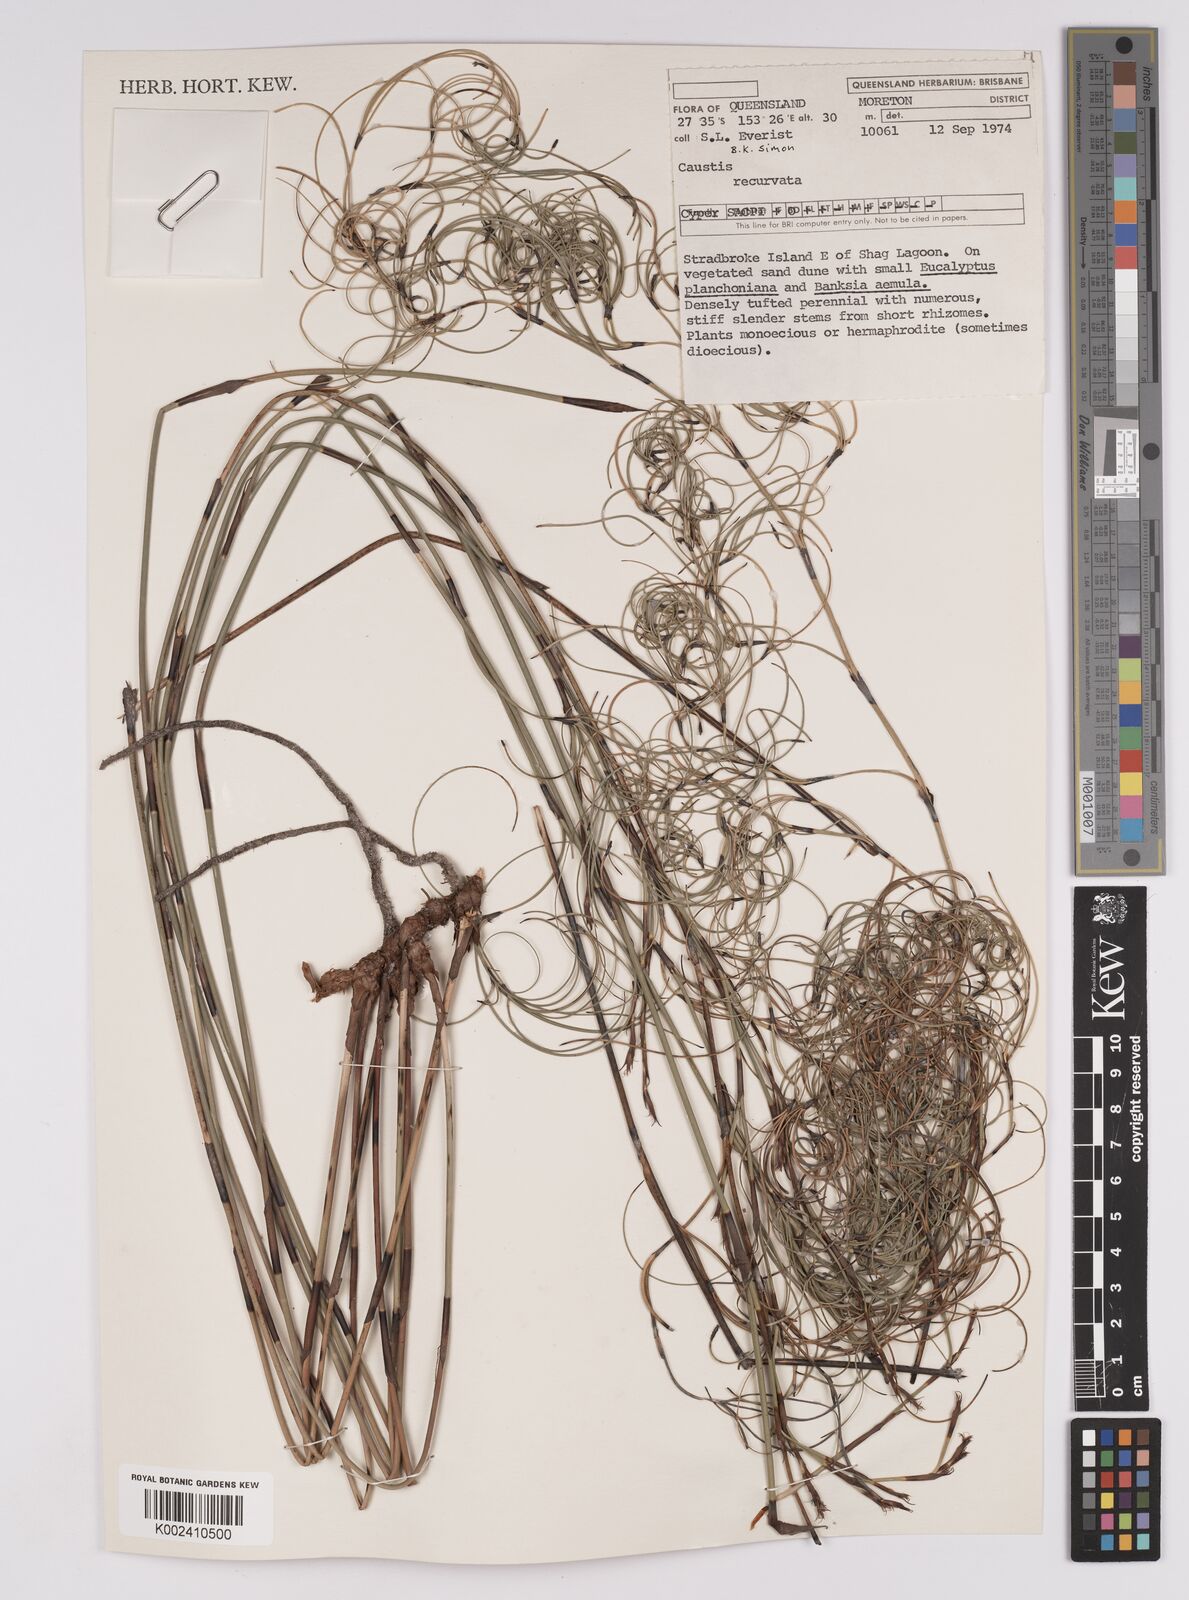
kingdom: Plantae
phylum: Tracheophyta
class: Liliopsida
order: Poales
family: Cyperaceae
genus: Caustis
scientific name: Caustis recurvata
